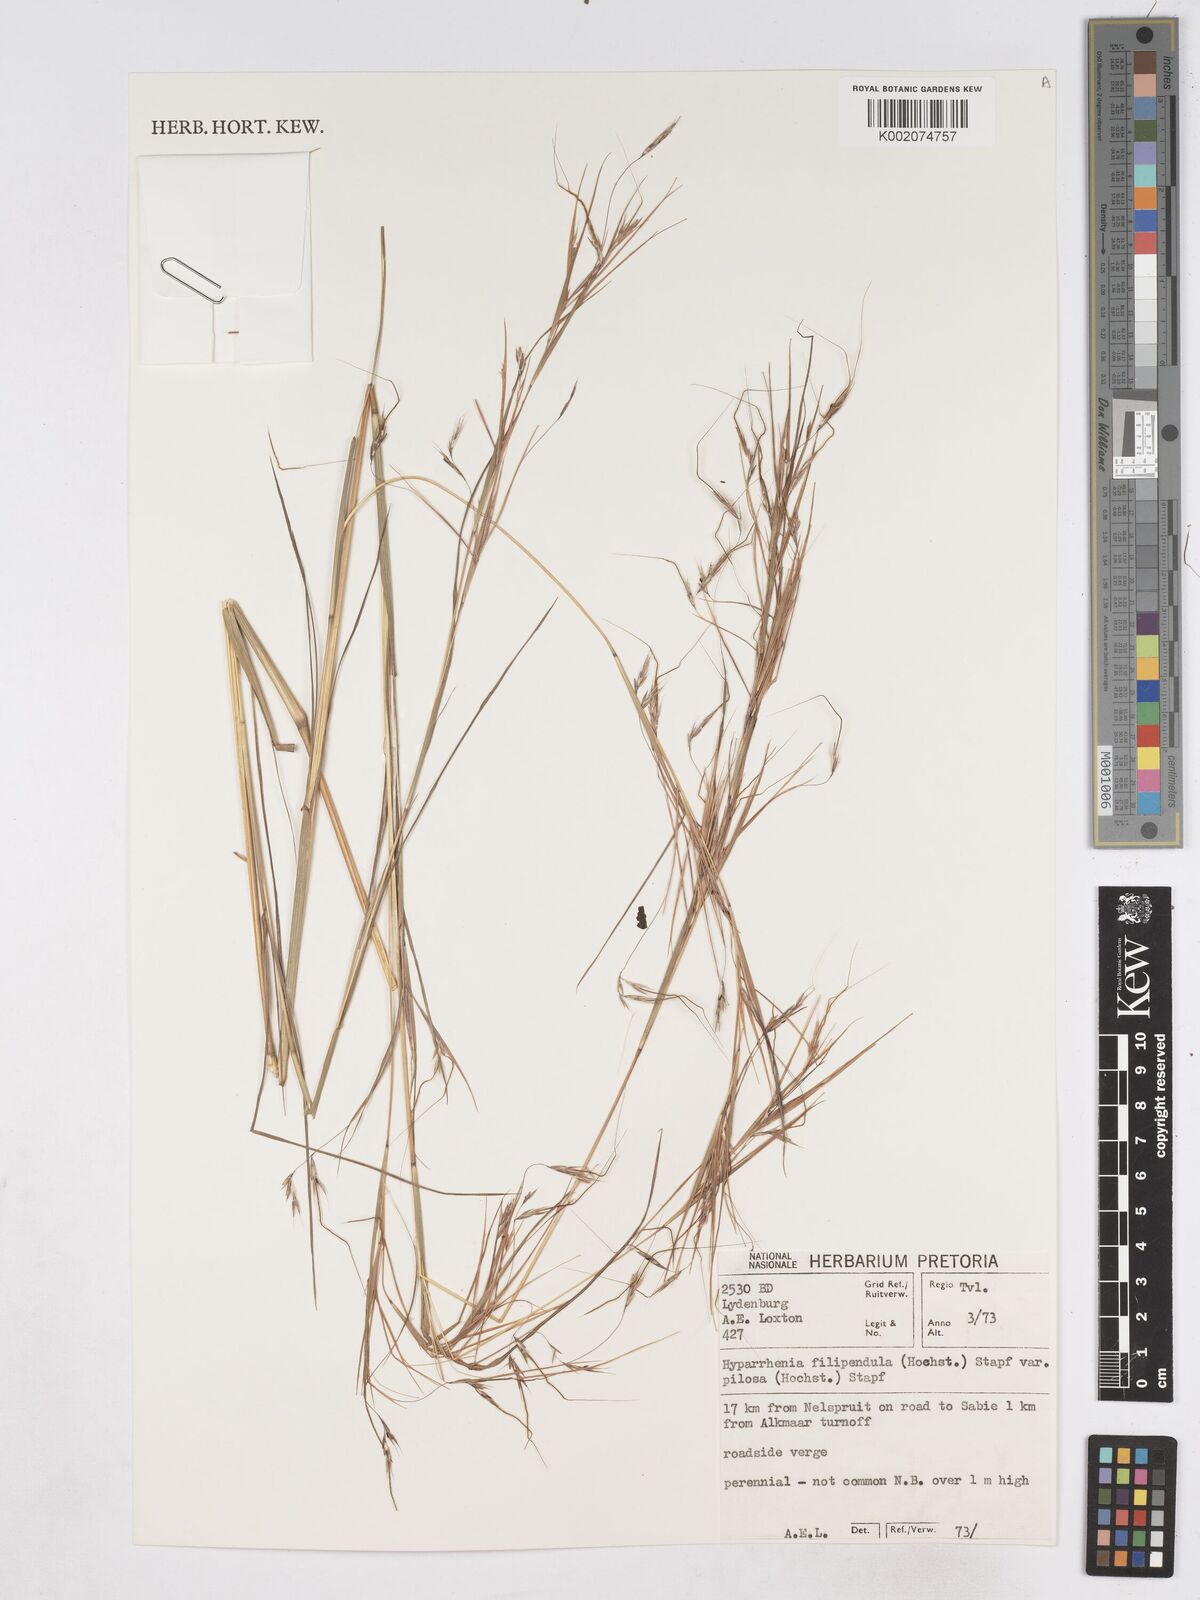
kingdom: Plantae
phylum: Tracheophyta
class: Liliopsida
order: Poales
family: Poaceae
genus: Hyparrhenia
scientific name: Hyparrhenia filipendula
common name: Tambookie grass
